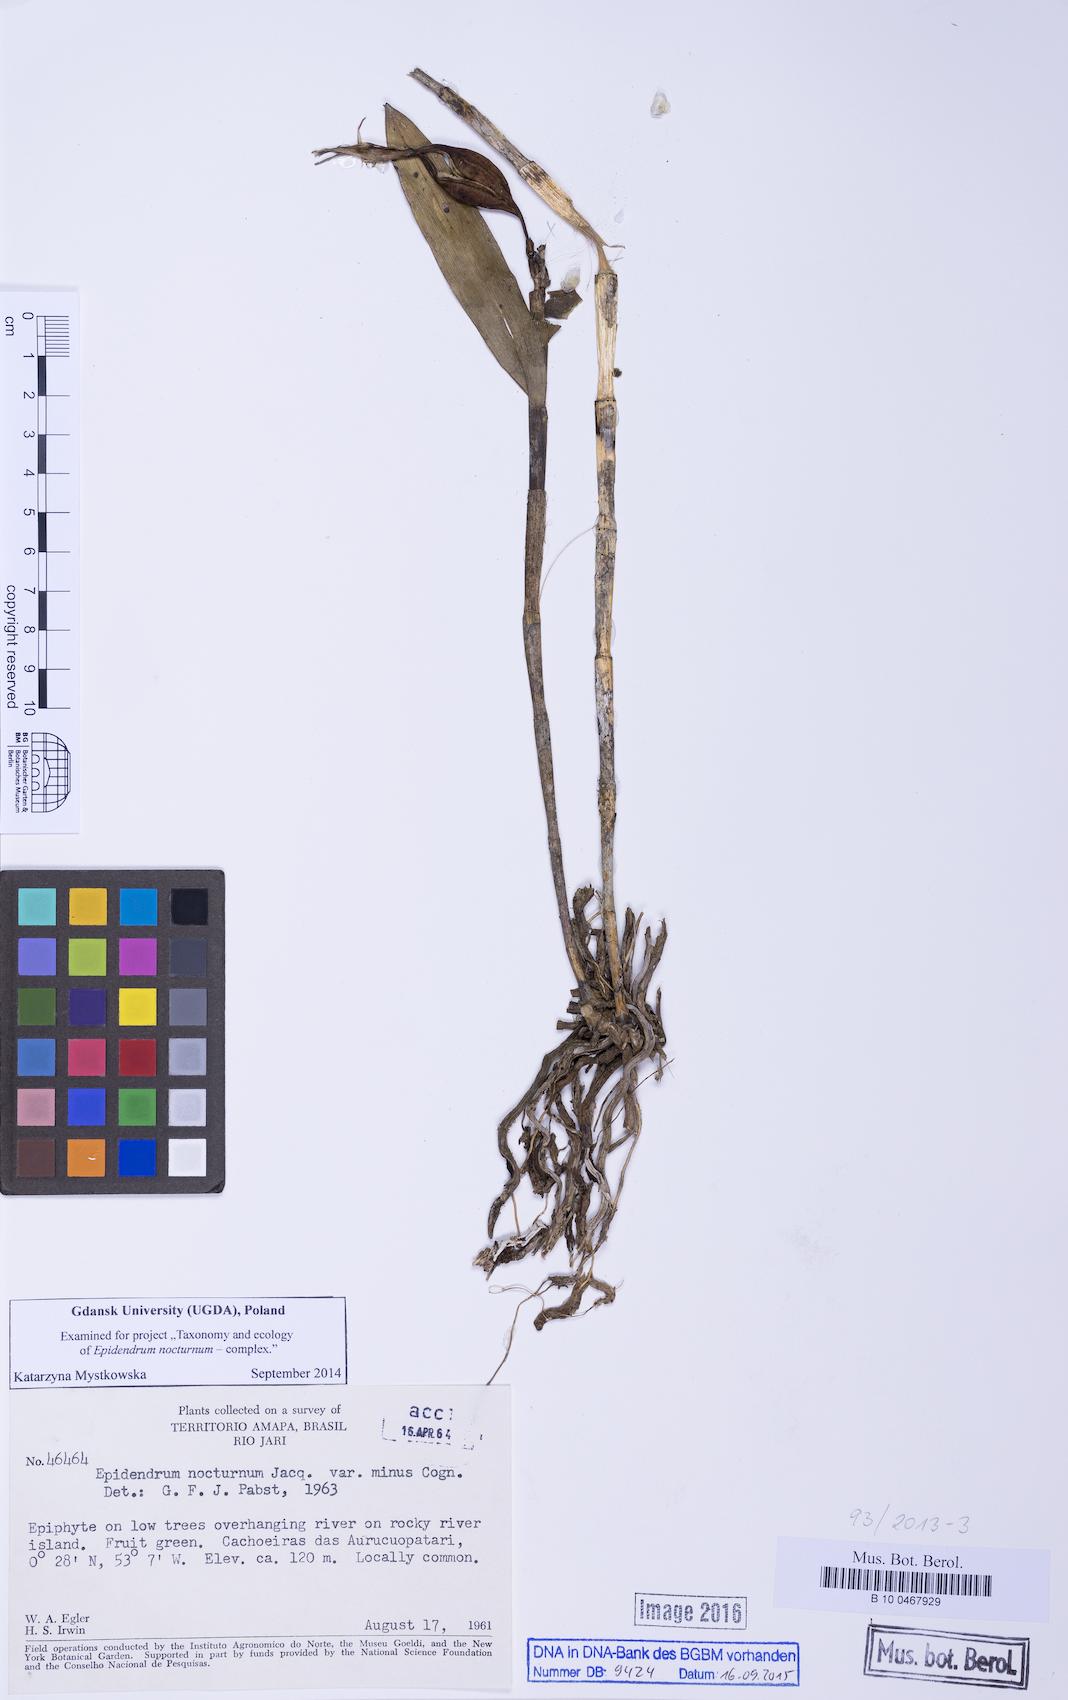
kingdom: Plantae
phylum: Tracheophyta
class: Liliopsida
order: Asparagales
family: Orchidaceae
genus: Epidendrum
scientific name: Epidendrum nocturnum
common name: Night scented orchid
